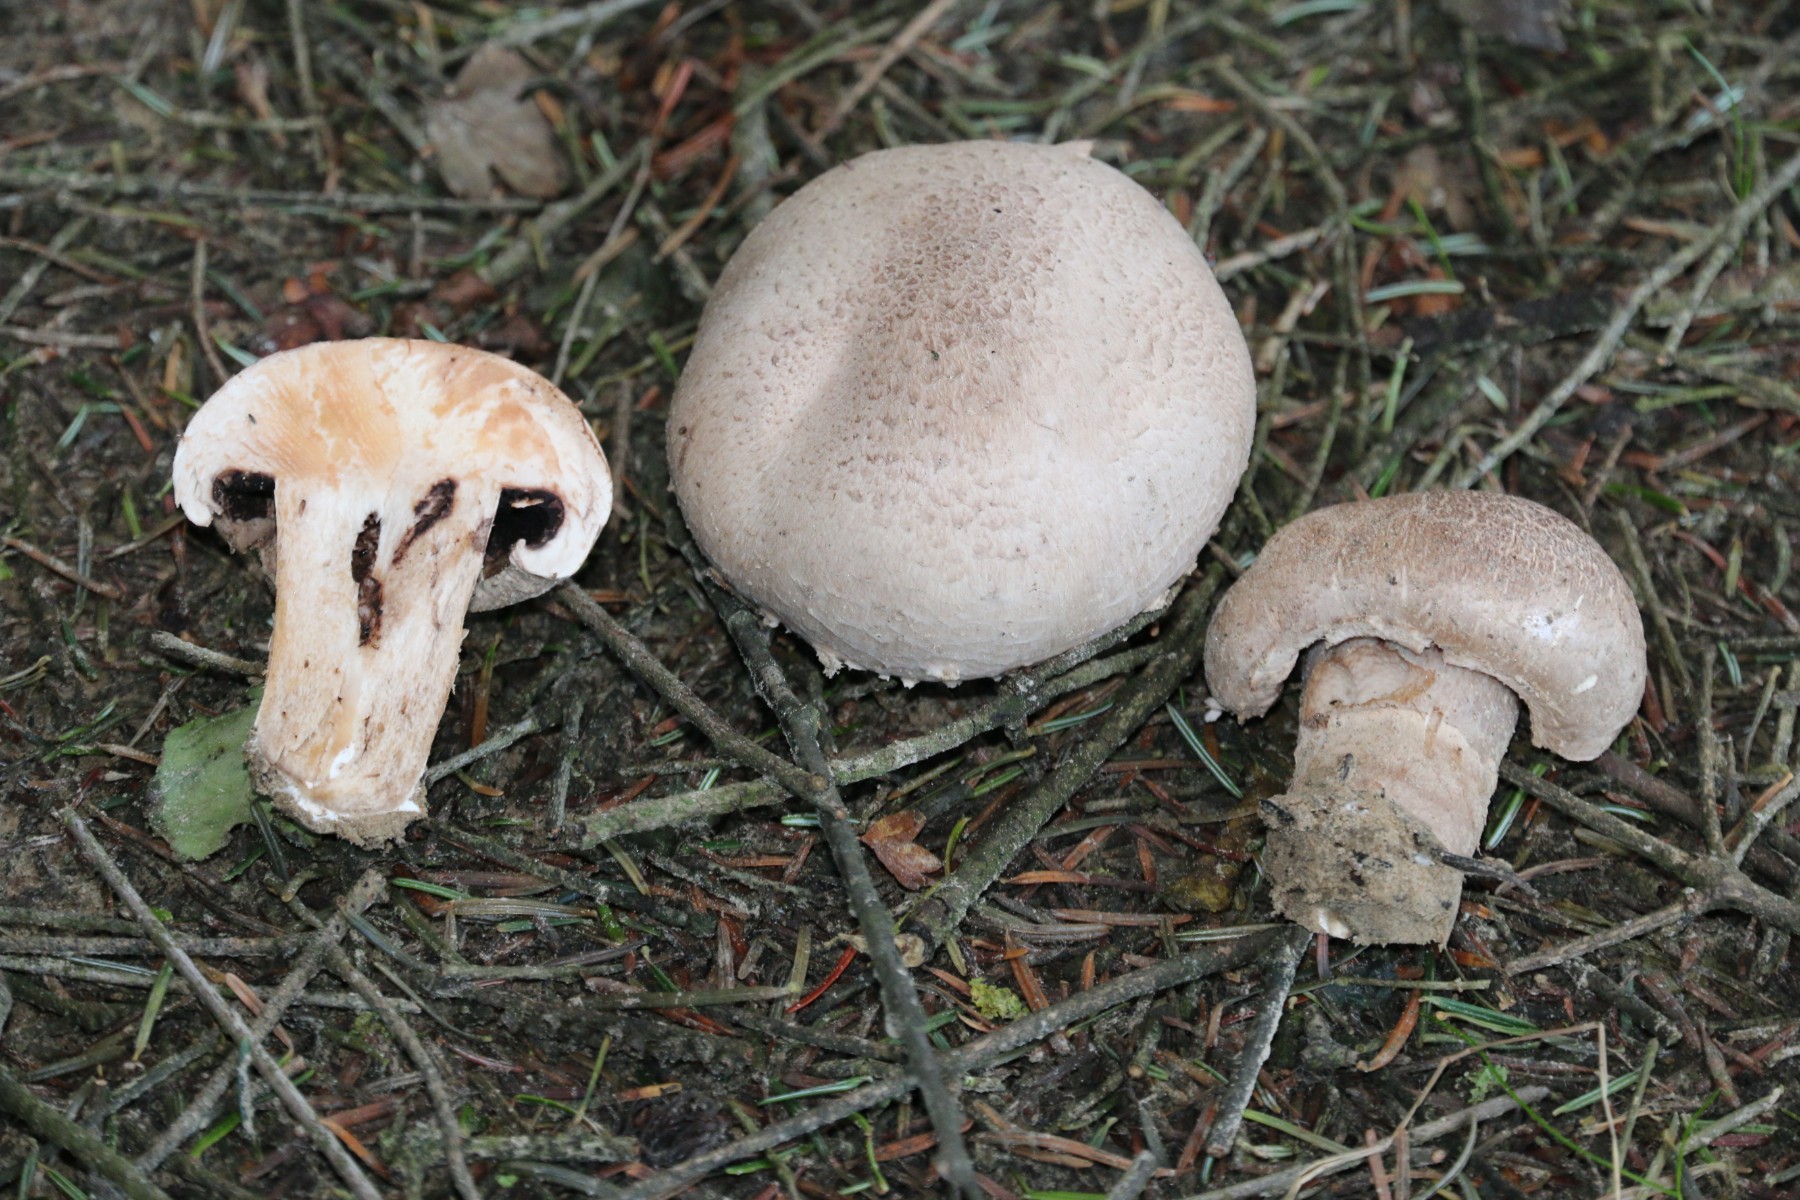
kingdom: Fungi
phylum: Basidiomycota
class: Agaricomycetes
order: Agaricales
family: Agaricaceae
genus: Agaricus
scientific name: Agaricus
